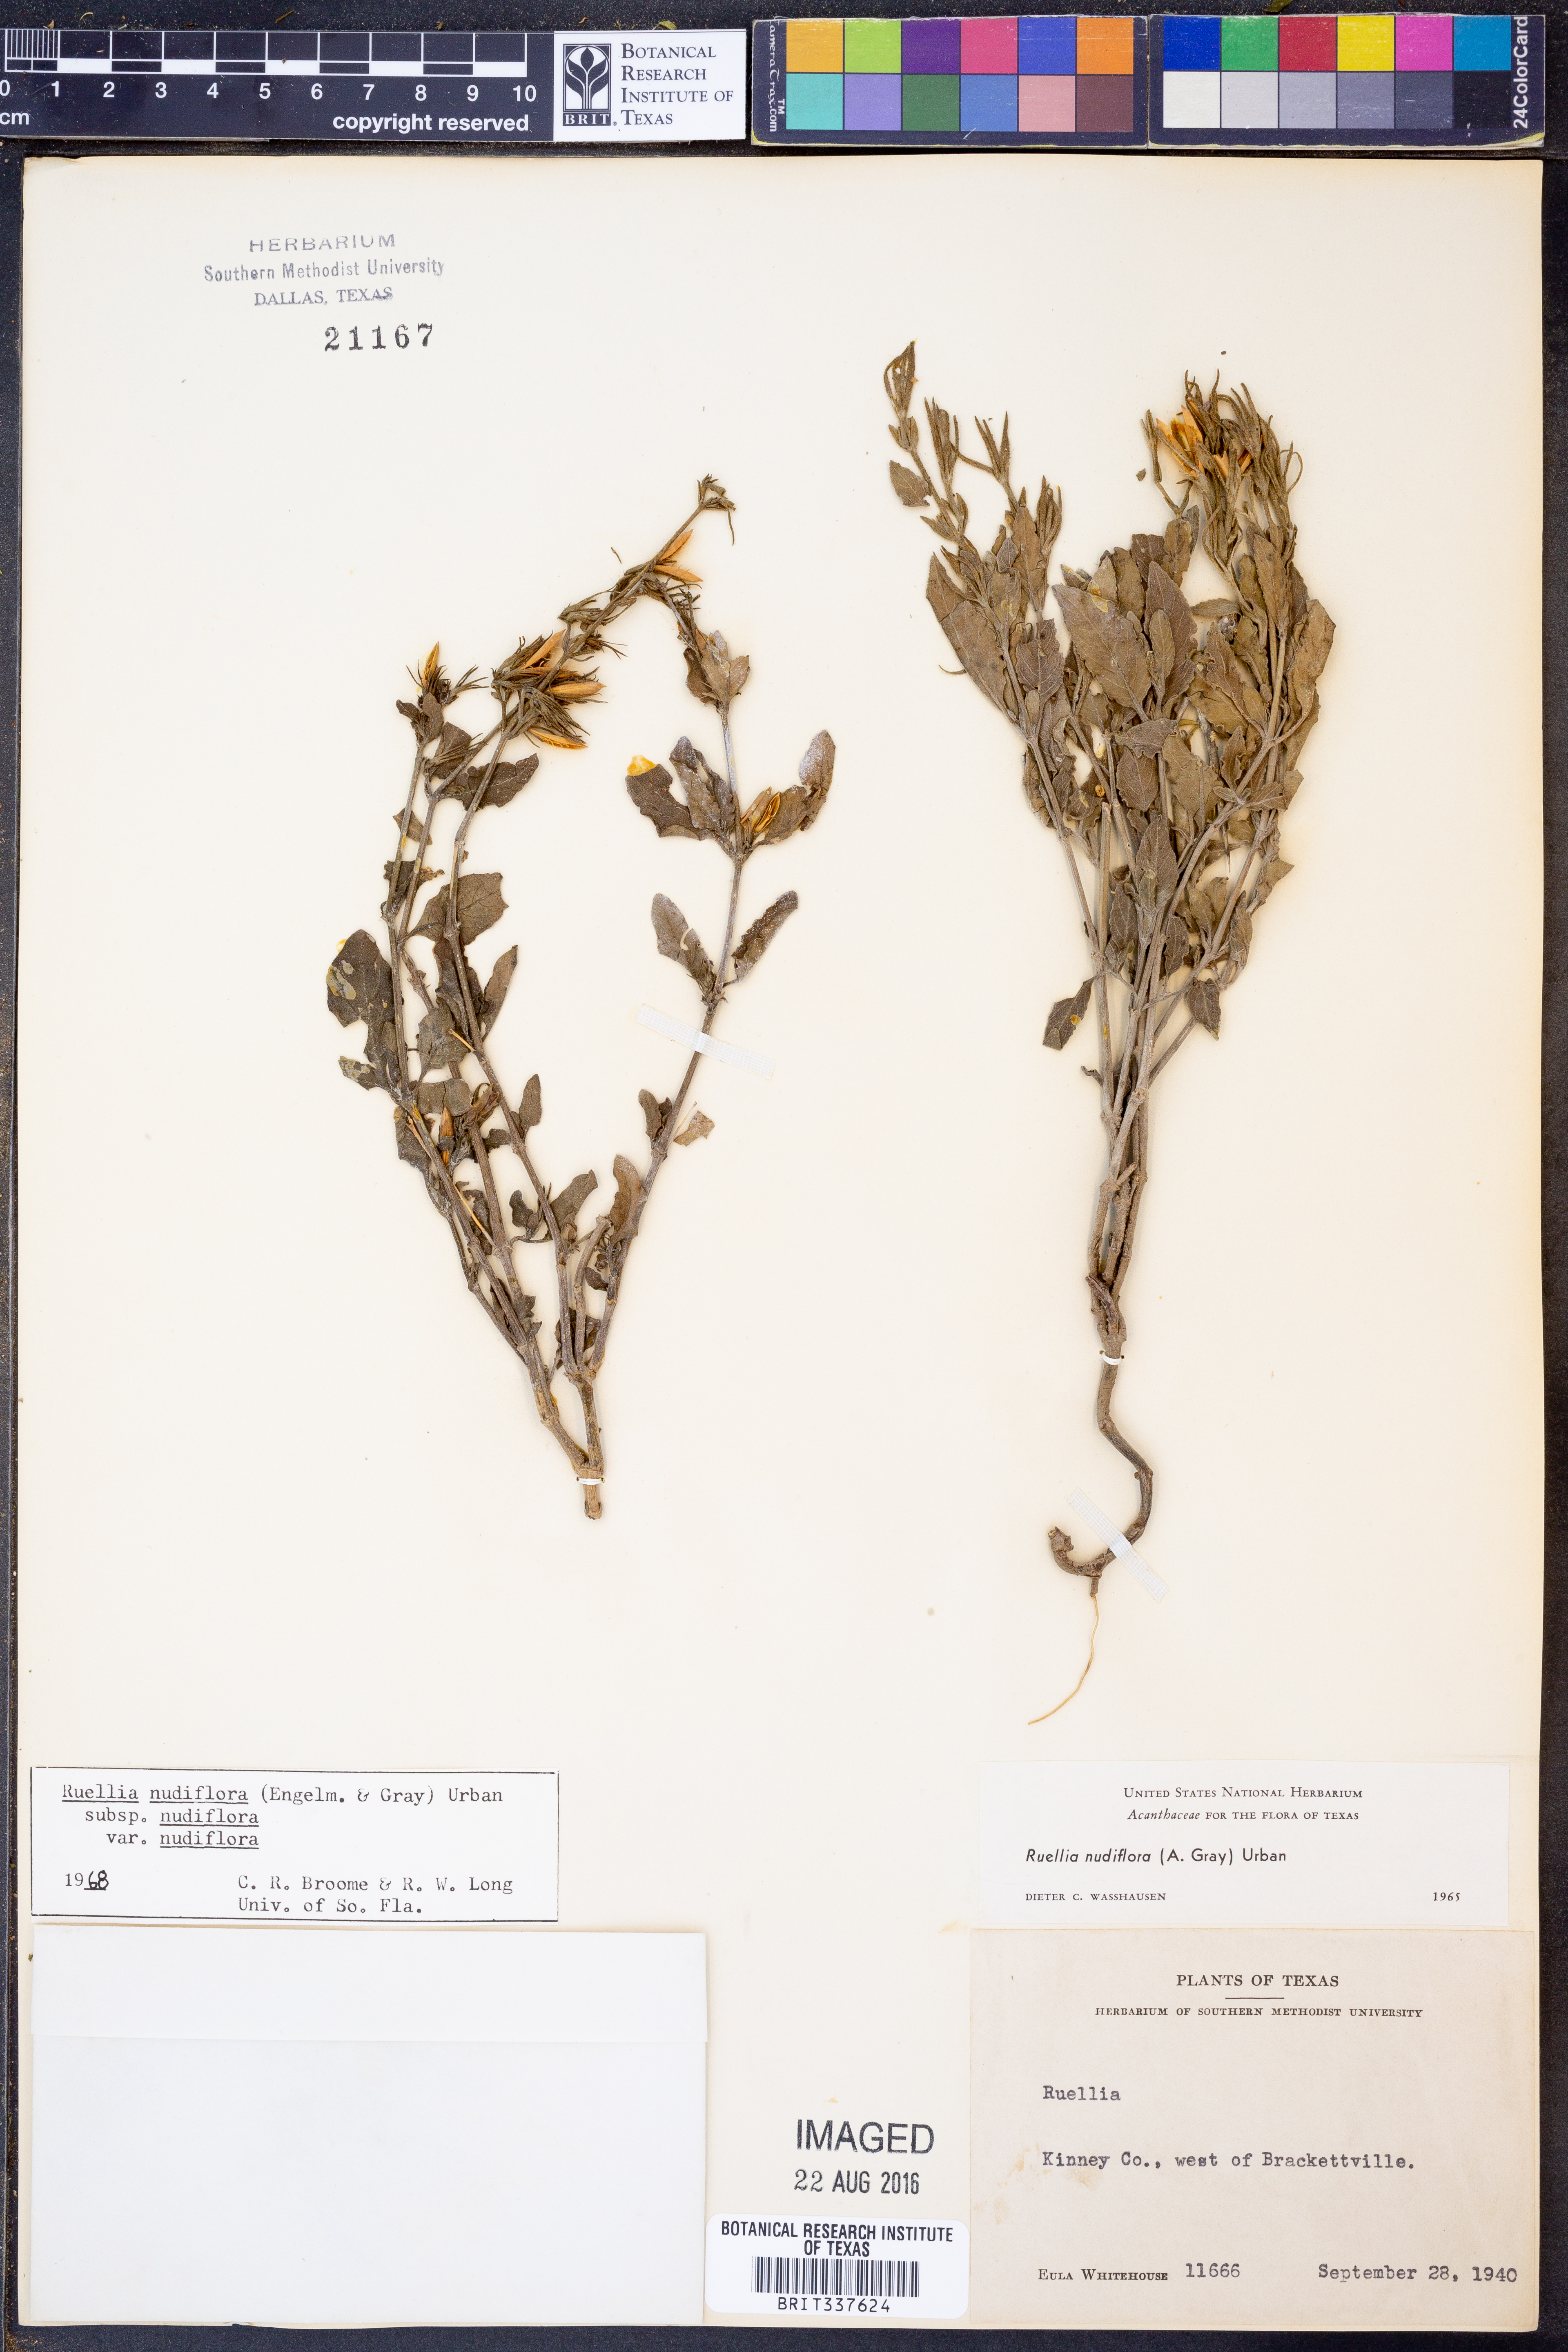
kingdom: Plantae
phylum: Tracheophyta
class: Magnoliopsida
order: Lamiales
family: Acanthaceae
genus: Ruellia
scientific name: Ruellia ciliatiflora
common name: Hairyflower wild petunia
